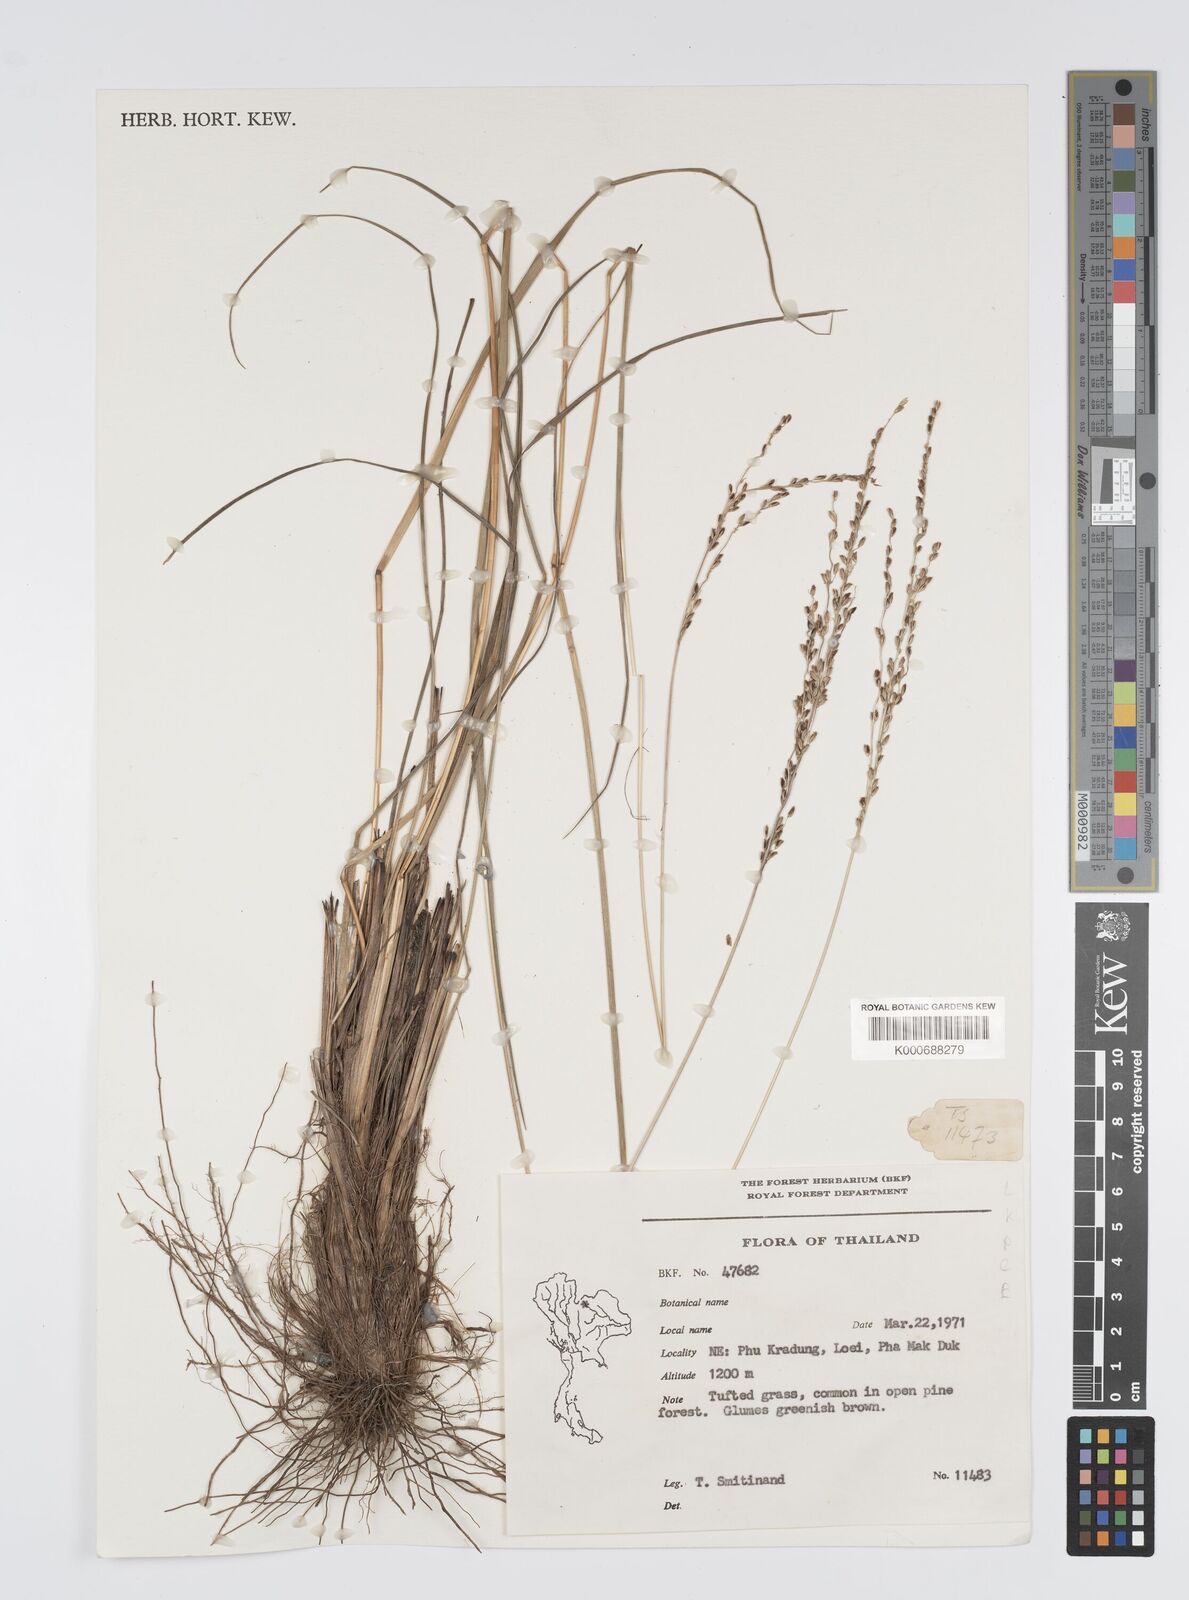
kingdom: Plantae
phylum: Tracheophyta
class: Liliopsida
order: Poales
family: Poaceae
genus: Digitaria
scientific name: Digitaria setifolia
